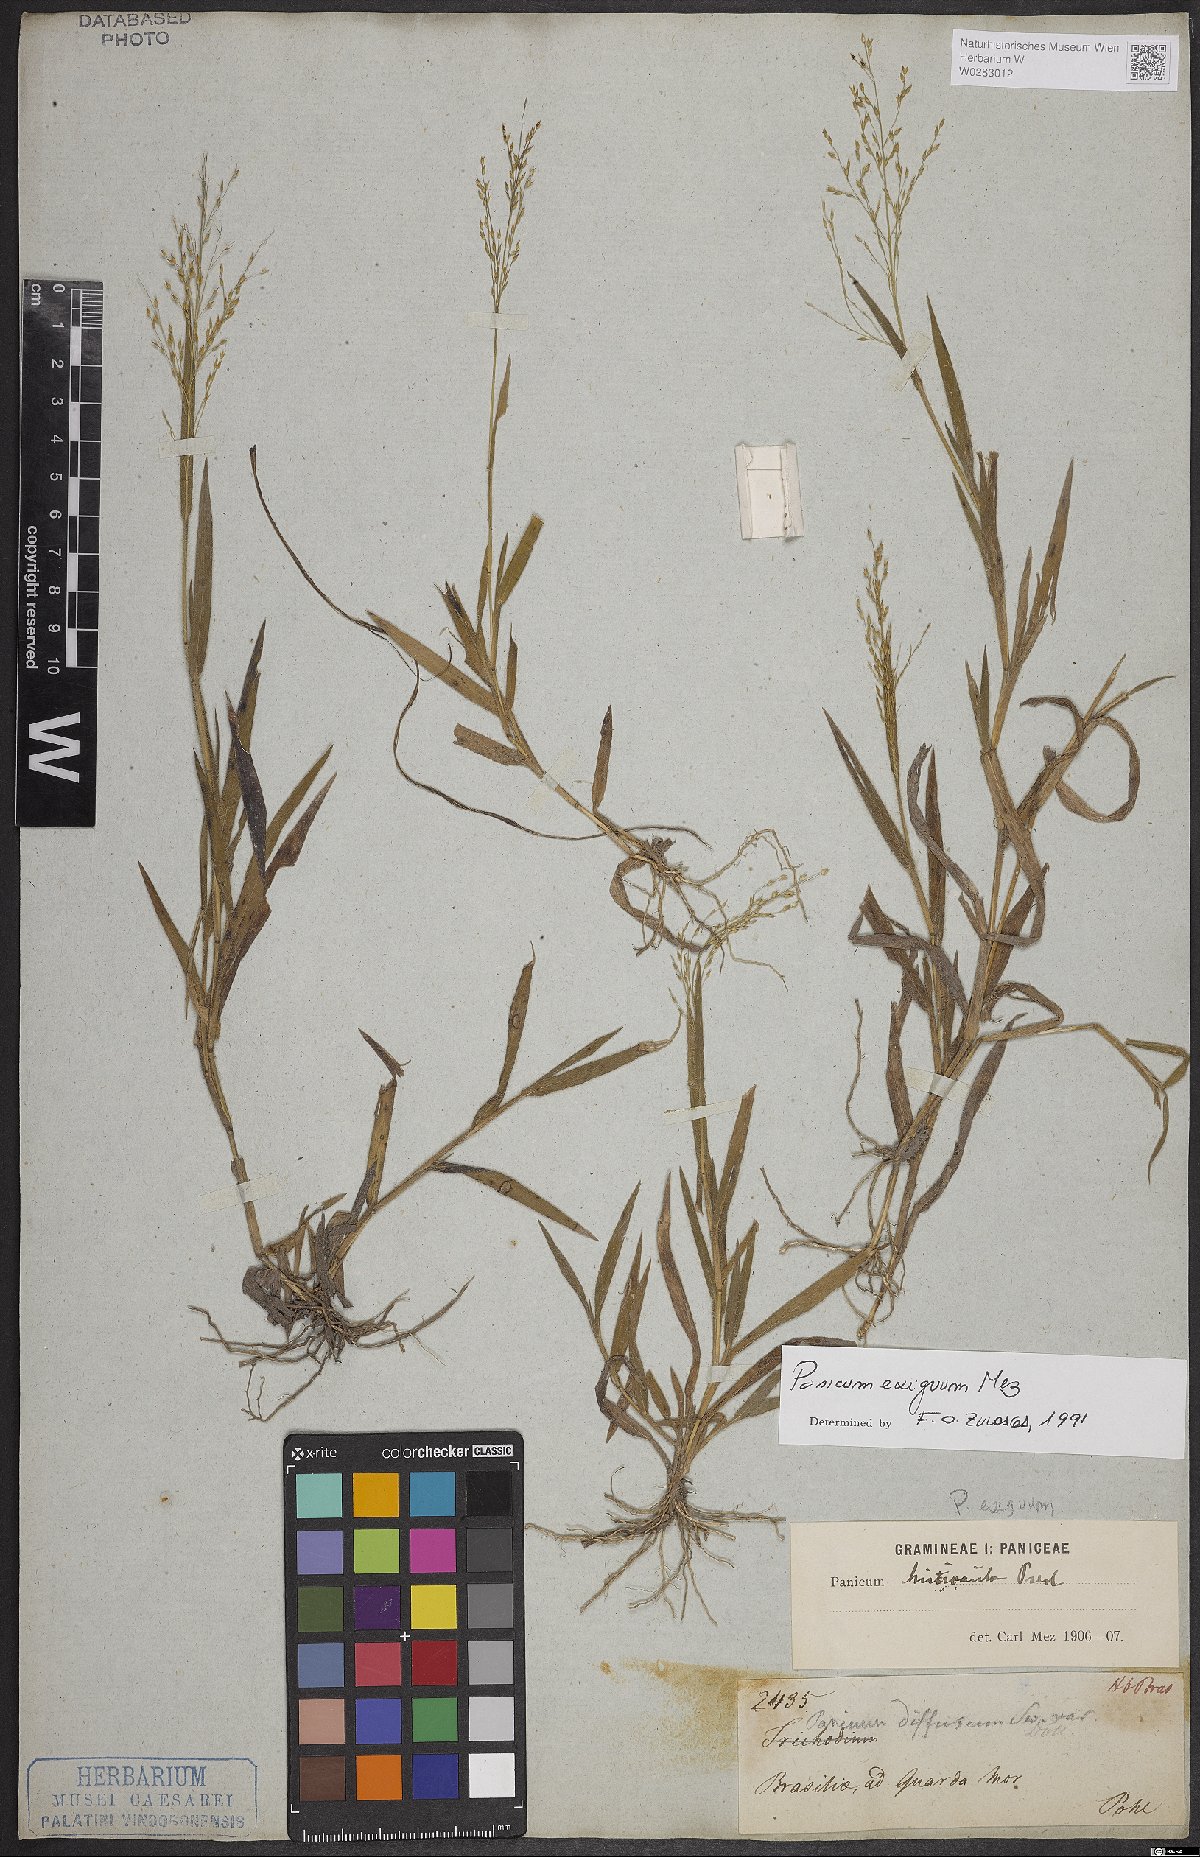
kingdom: Plantae
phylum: Tracheophyta
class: Liliopsida
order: Poales
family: Poaceae
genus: Panicum
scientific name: Panicum exiguum
